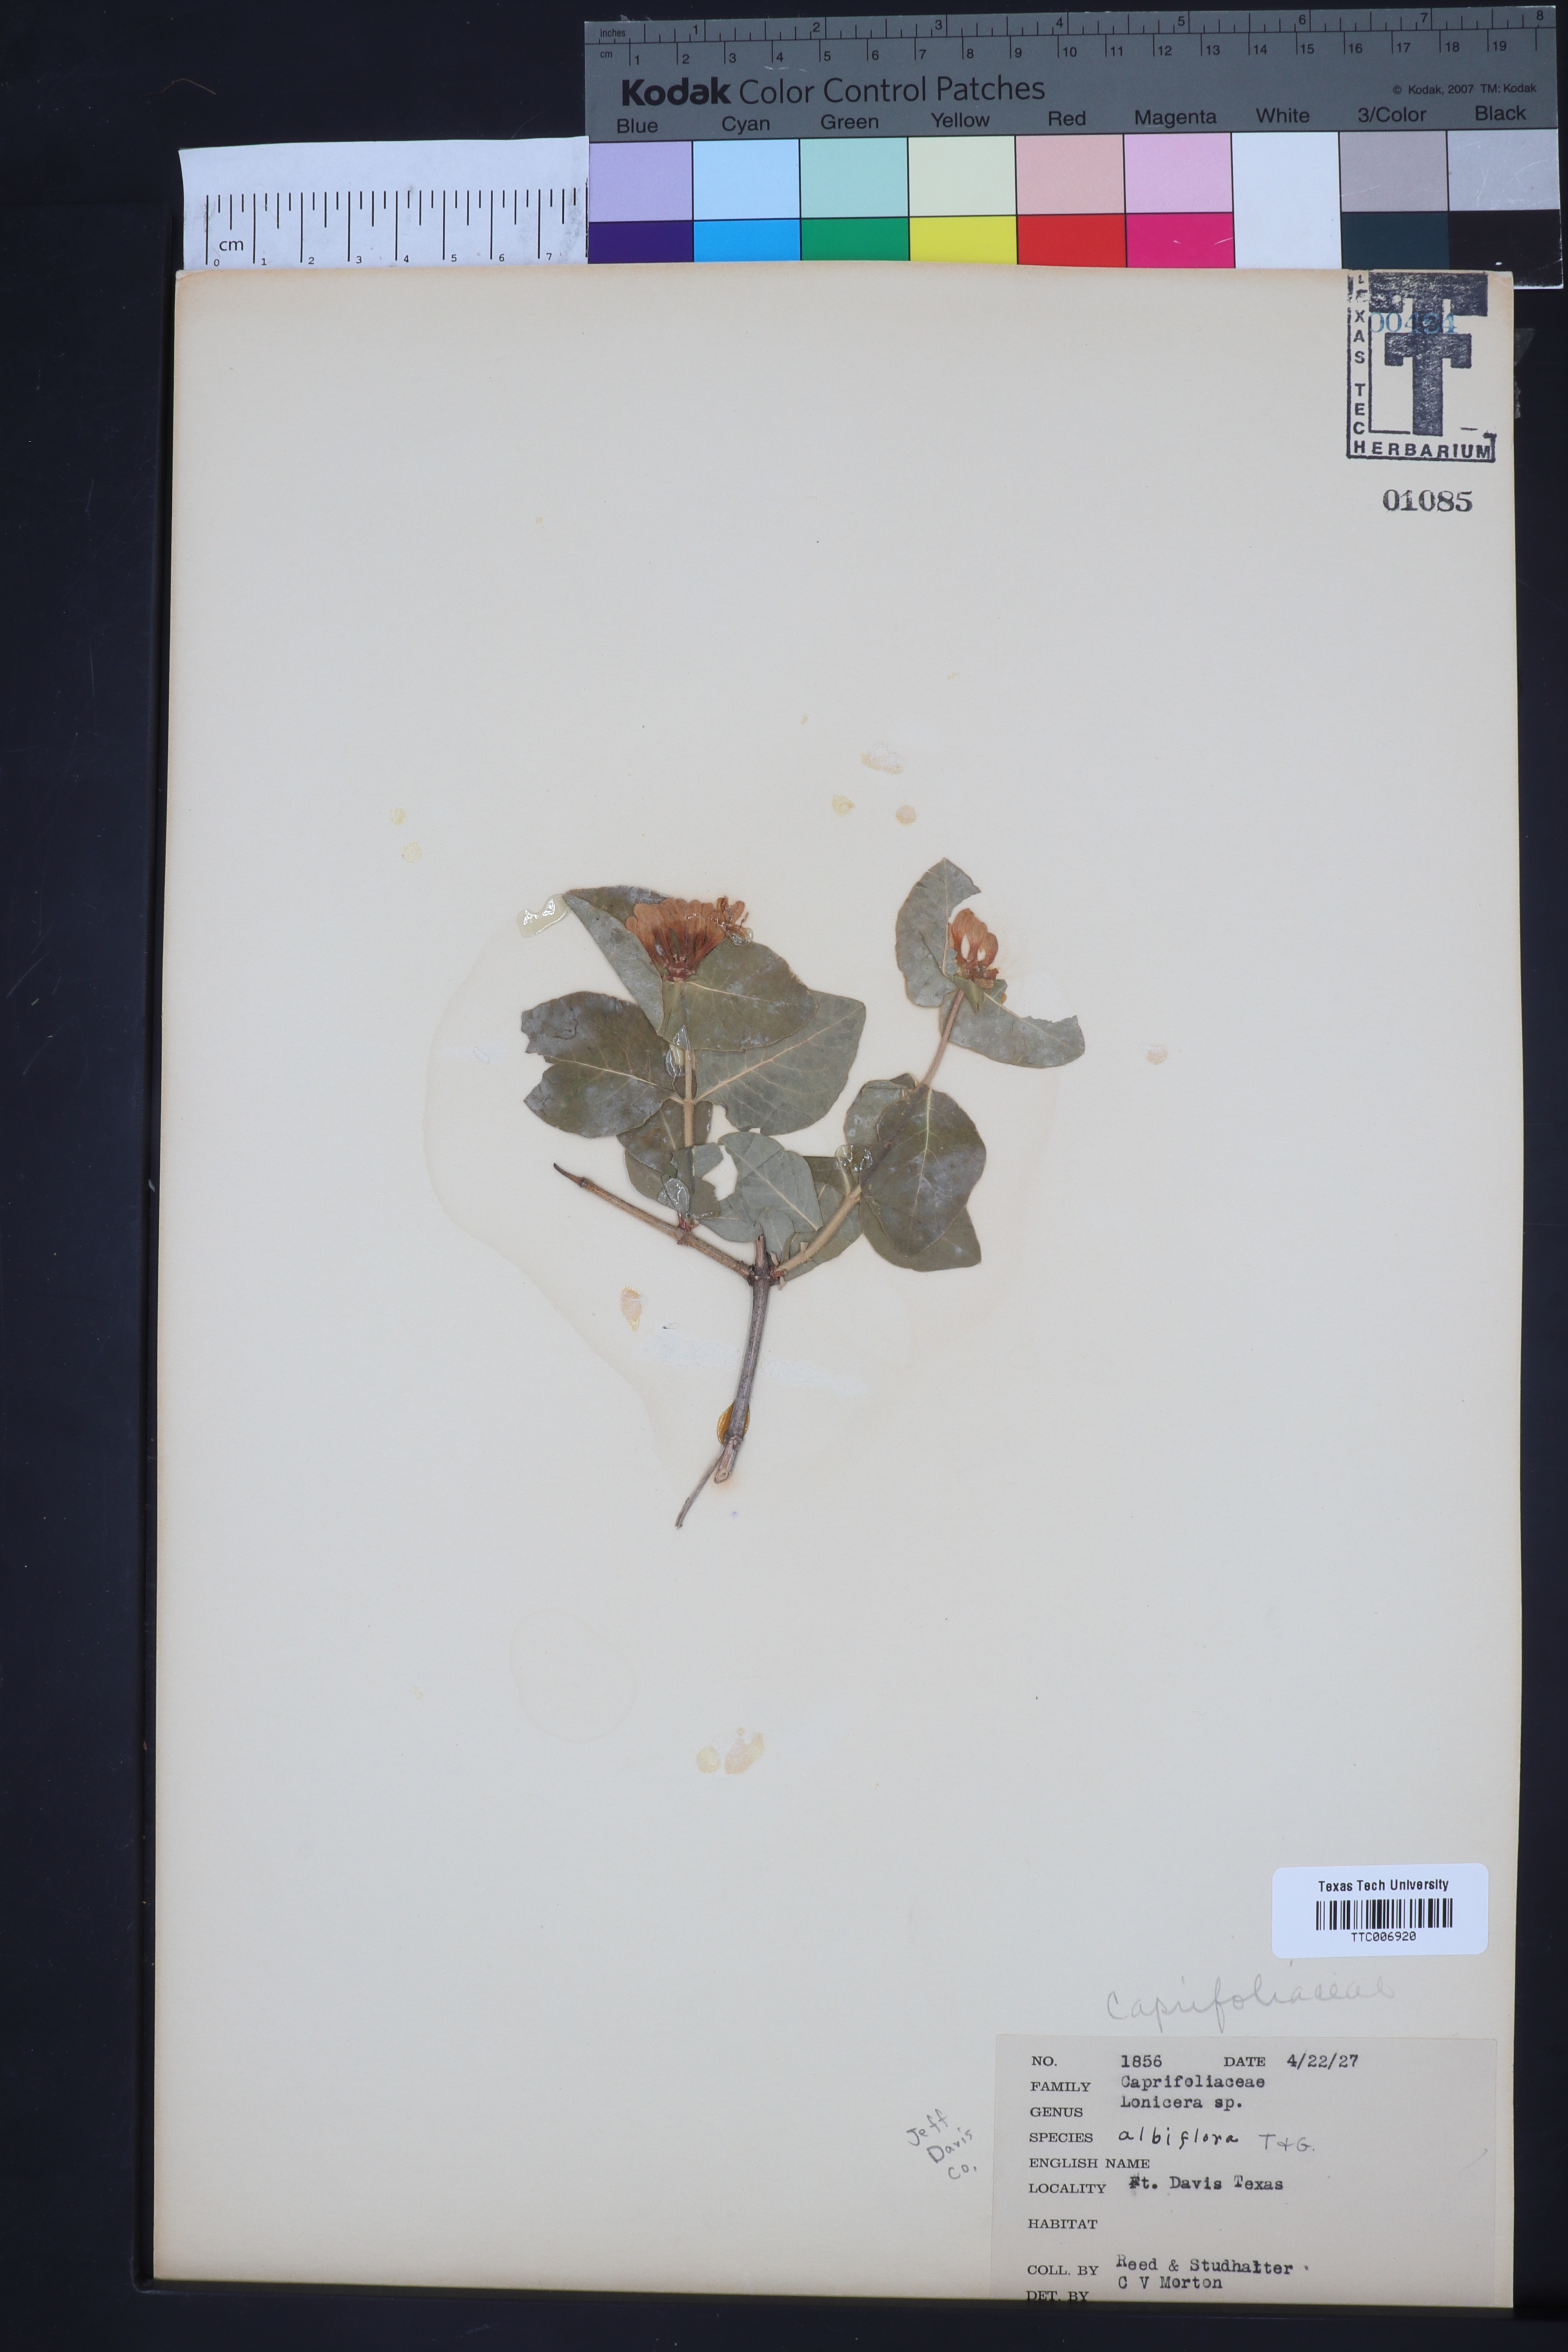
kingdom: Plantae
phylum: Tracheophyta
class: Magnoliopsida
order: Dipsacales
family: Caprifoliaceae
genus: Lonicera
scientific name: Lonicera albiflora
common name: White honeysuckle
